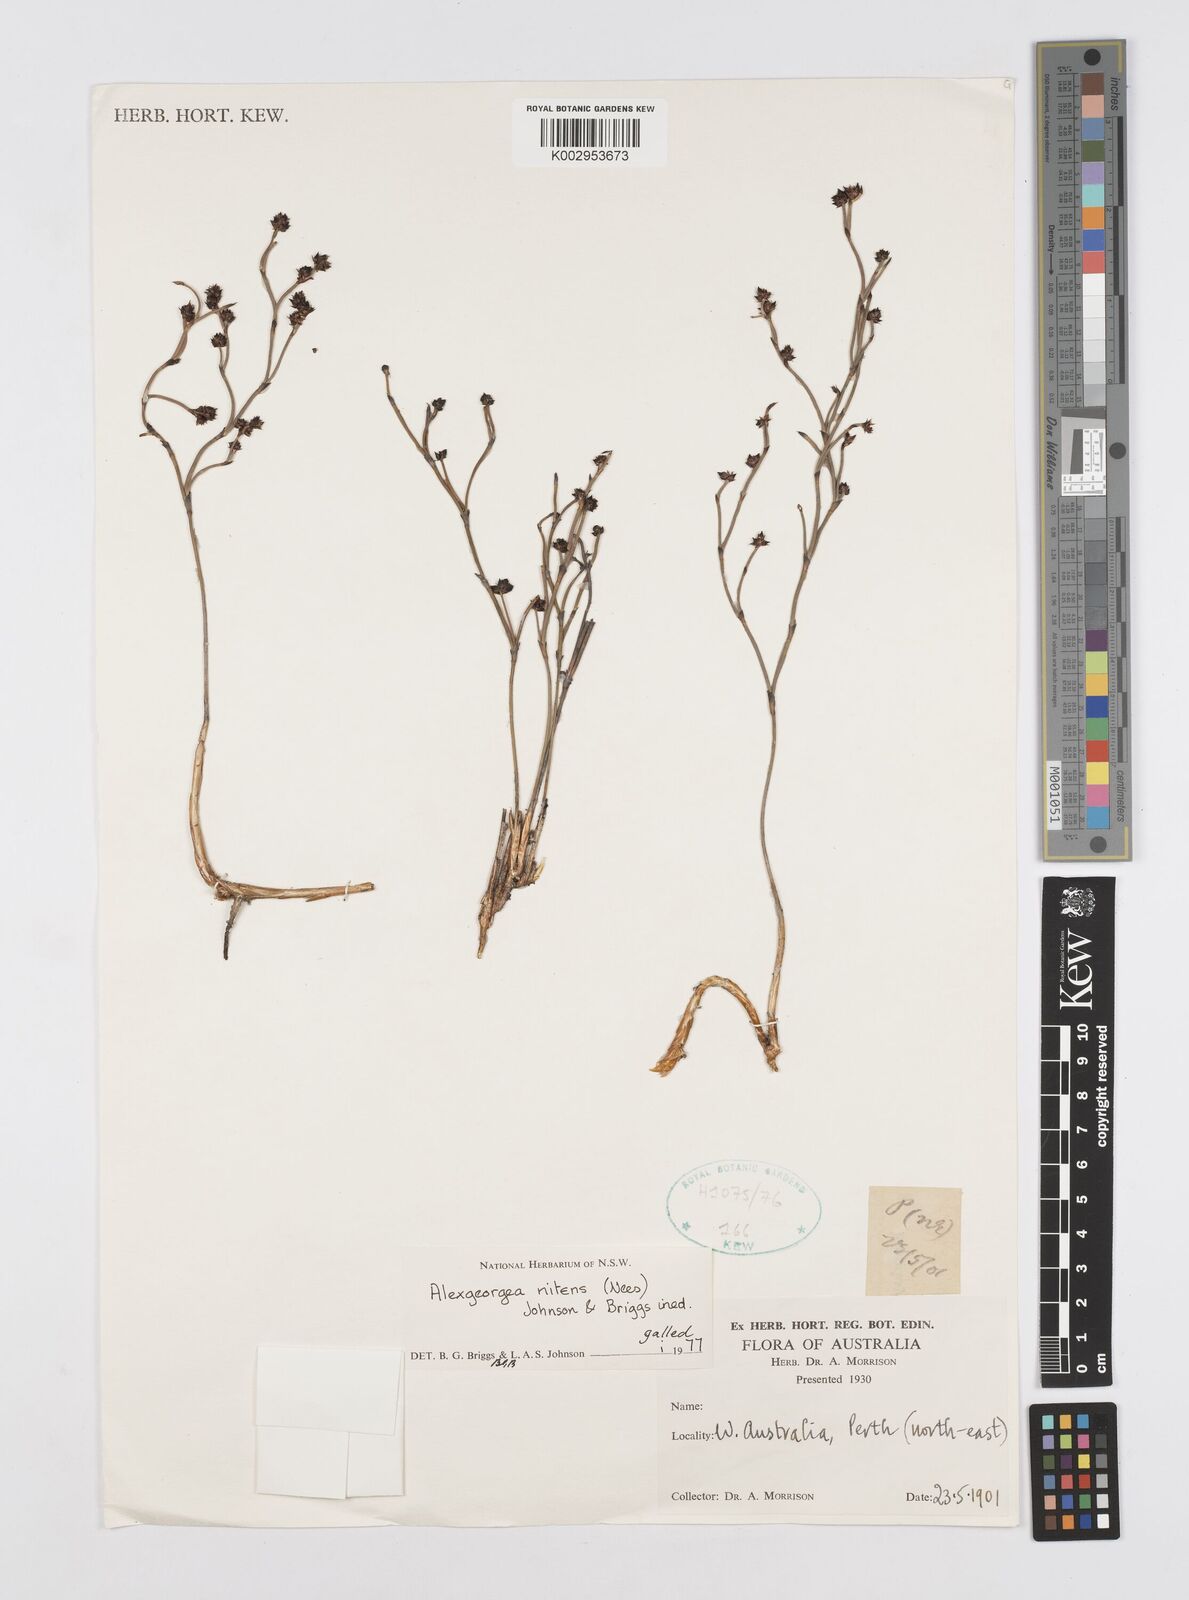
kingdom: Plantae
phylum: Tracheophyta
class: Liliopsida
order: Poales
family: Restionaceae
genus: Alexgeorgea
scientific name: Alexgeorgea nitens
